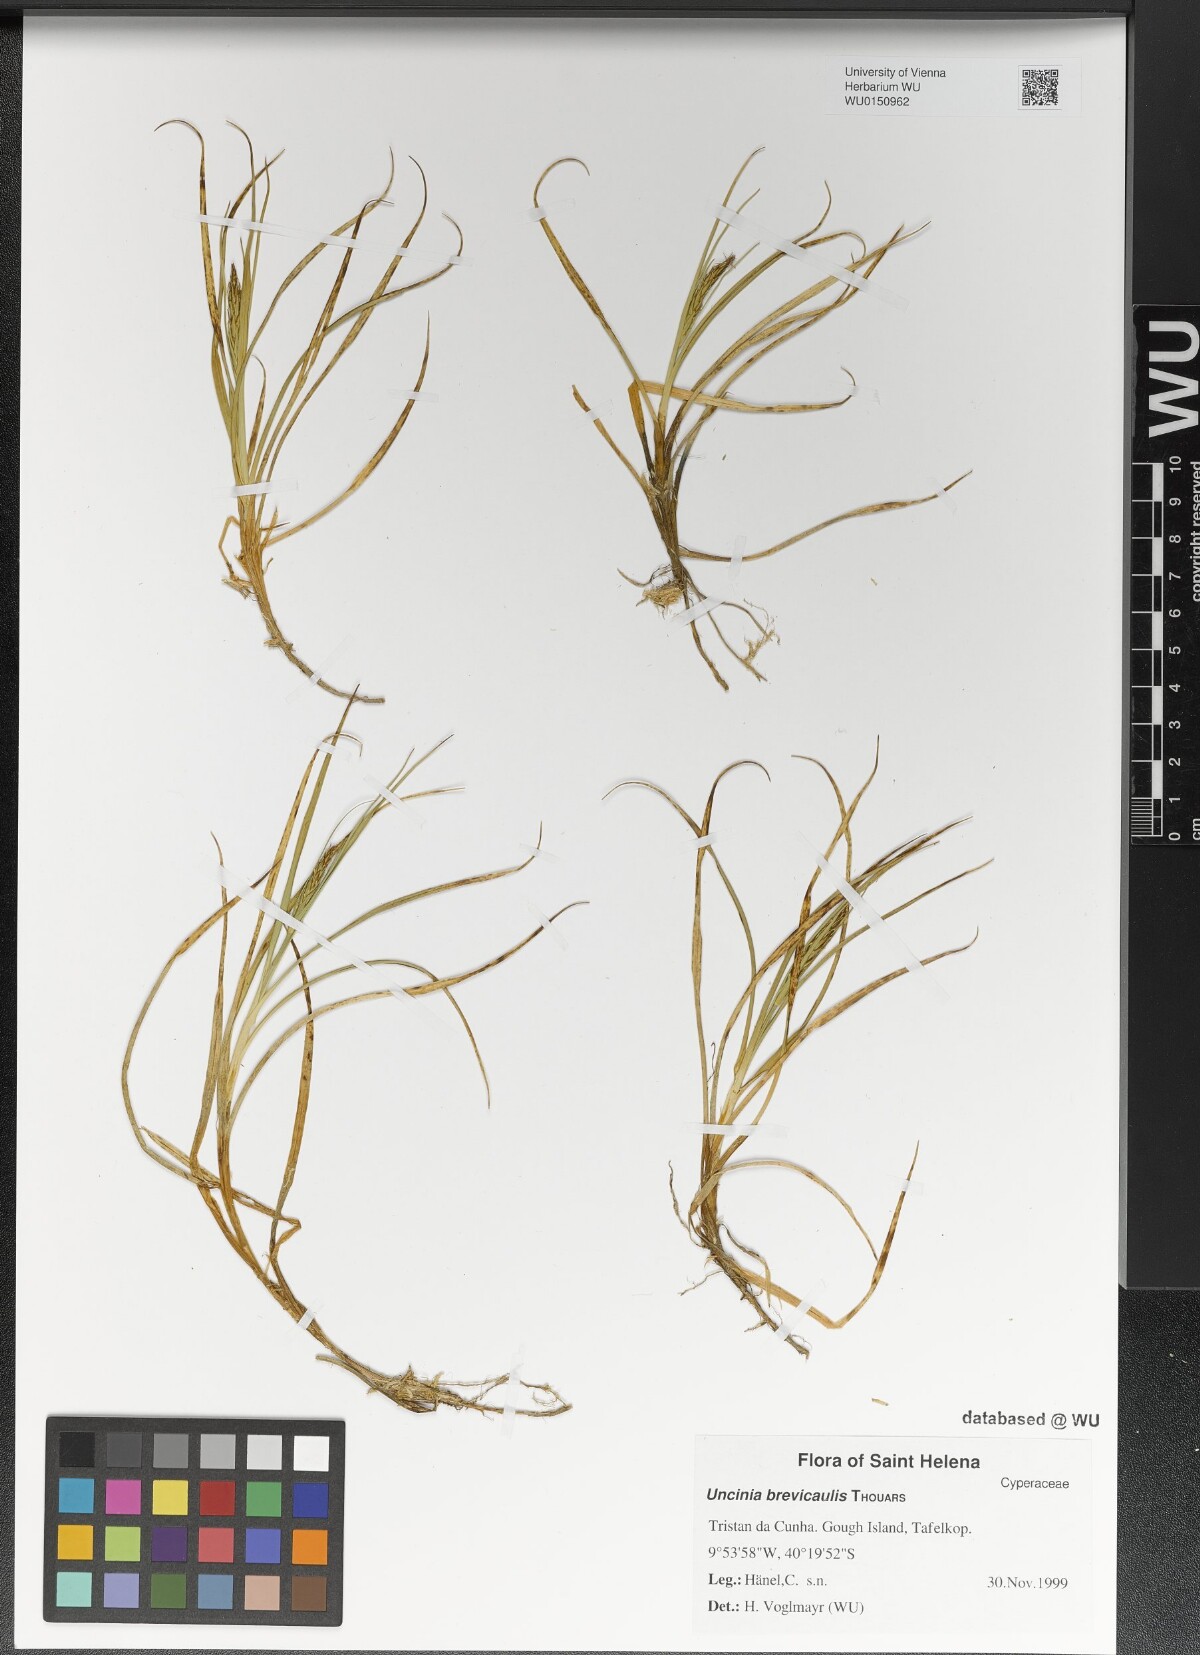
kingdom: Plantae
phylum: Tracheophyta
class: Liliopsida
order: Poales
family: Cyperaceae
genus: Carex
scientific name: Carex Uncinia brevicaulis
